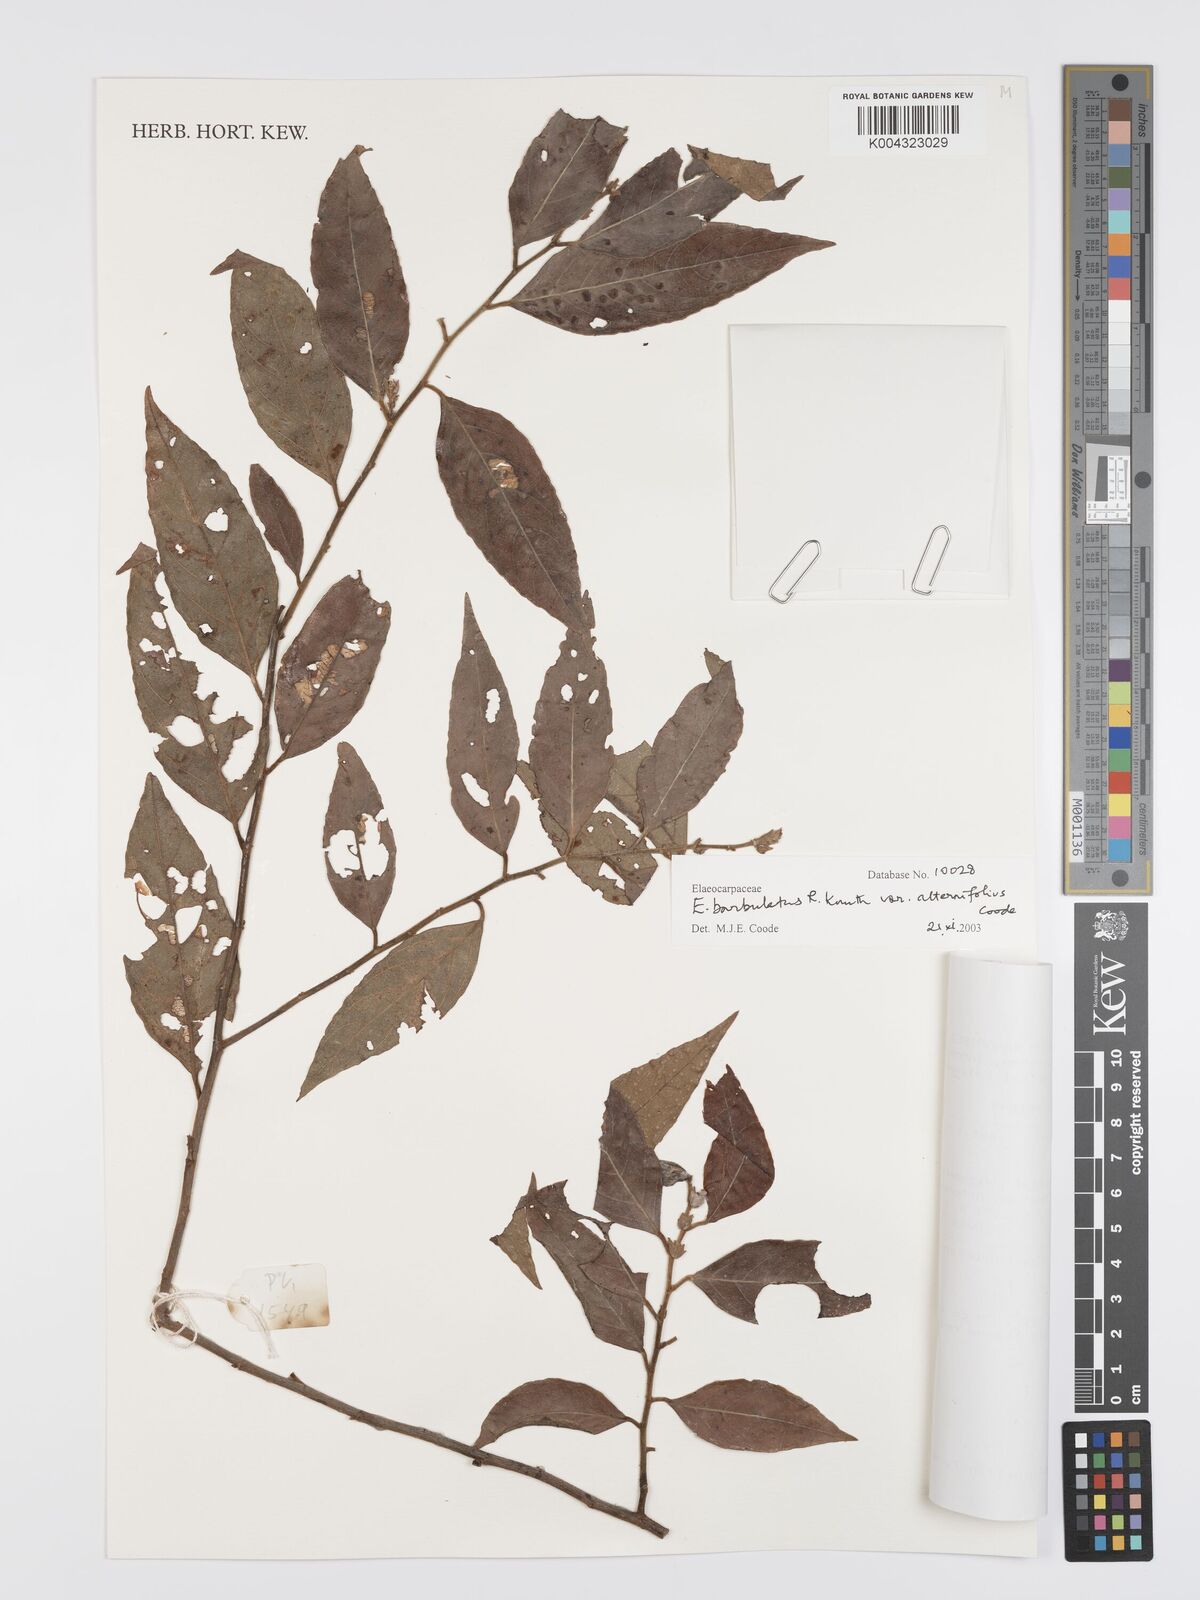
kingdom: Plantae
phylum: Tracheophyta
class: Magnoliopsida
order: Oxalidales
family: Elaeocarpaceae
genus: Elaeocarpus
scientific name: Elaeocarpus barbulatus
